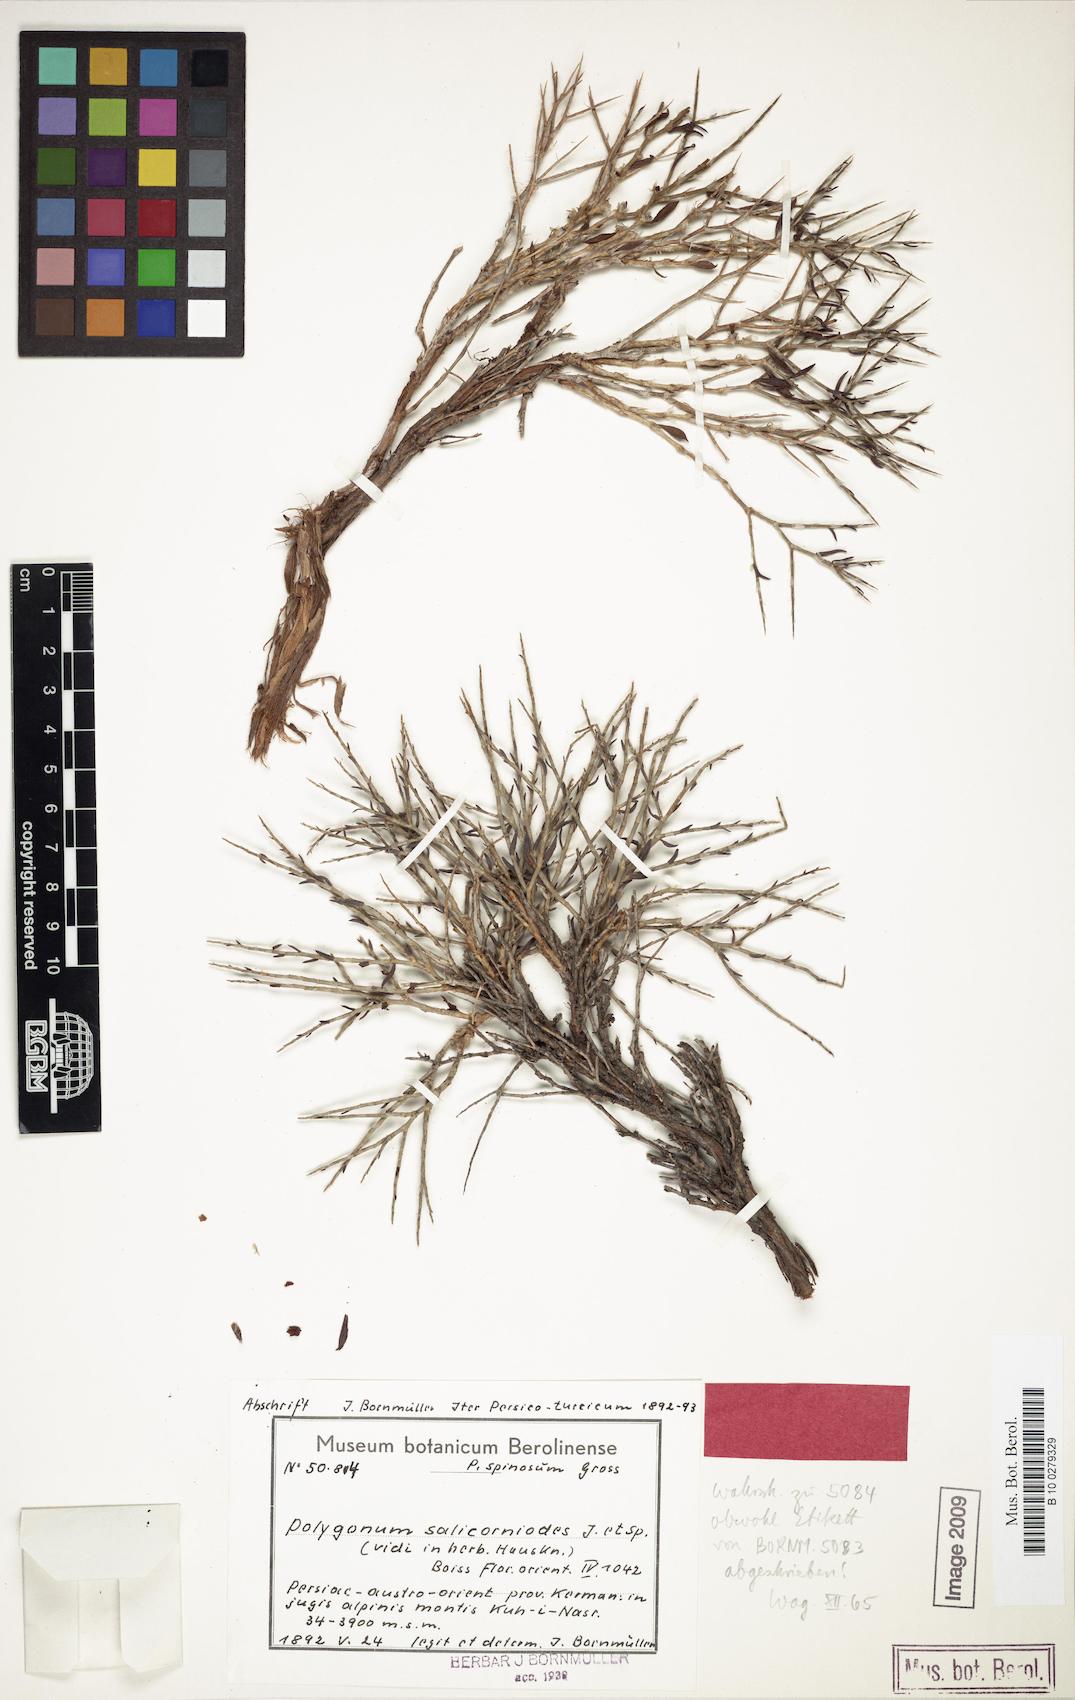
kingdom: Plantae
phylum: Tracheophyta
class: Magnoliopsida
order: Caryophyllales
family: Polygonaceae
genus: Atraphaxis
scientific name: Atraphaxis kermanica
